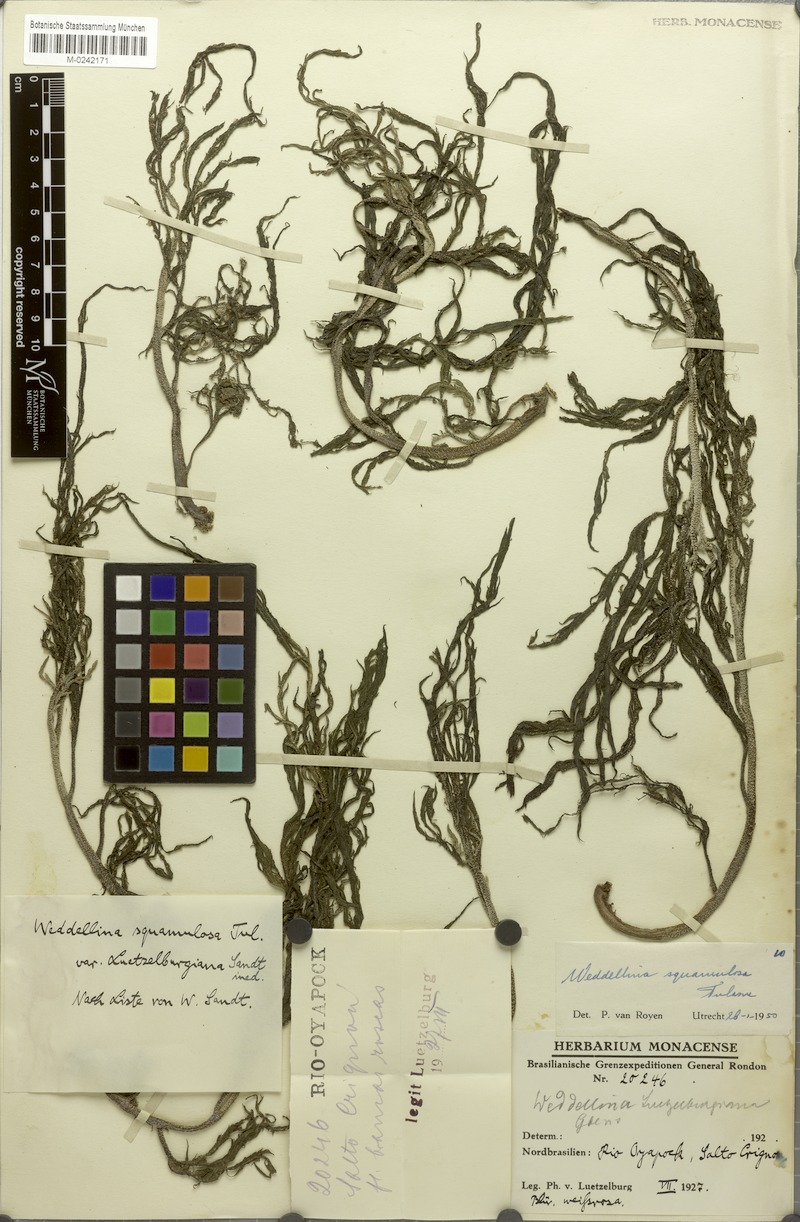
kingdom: Plantae
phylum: Tracheophyta
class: Magnoliopsida
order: Malpighiales
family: Podostemaceae
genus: Weddellina
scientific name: Weddellina squamulosa
